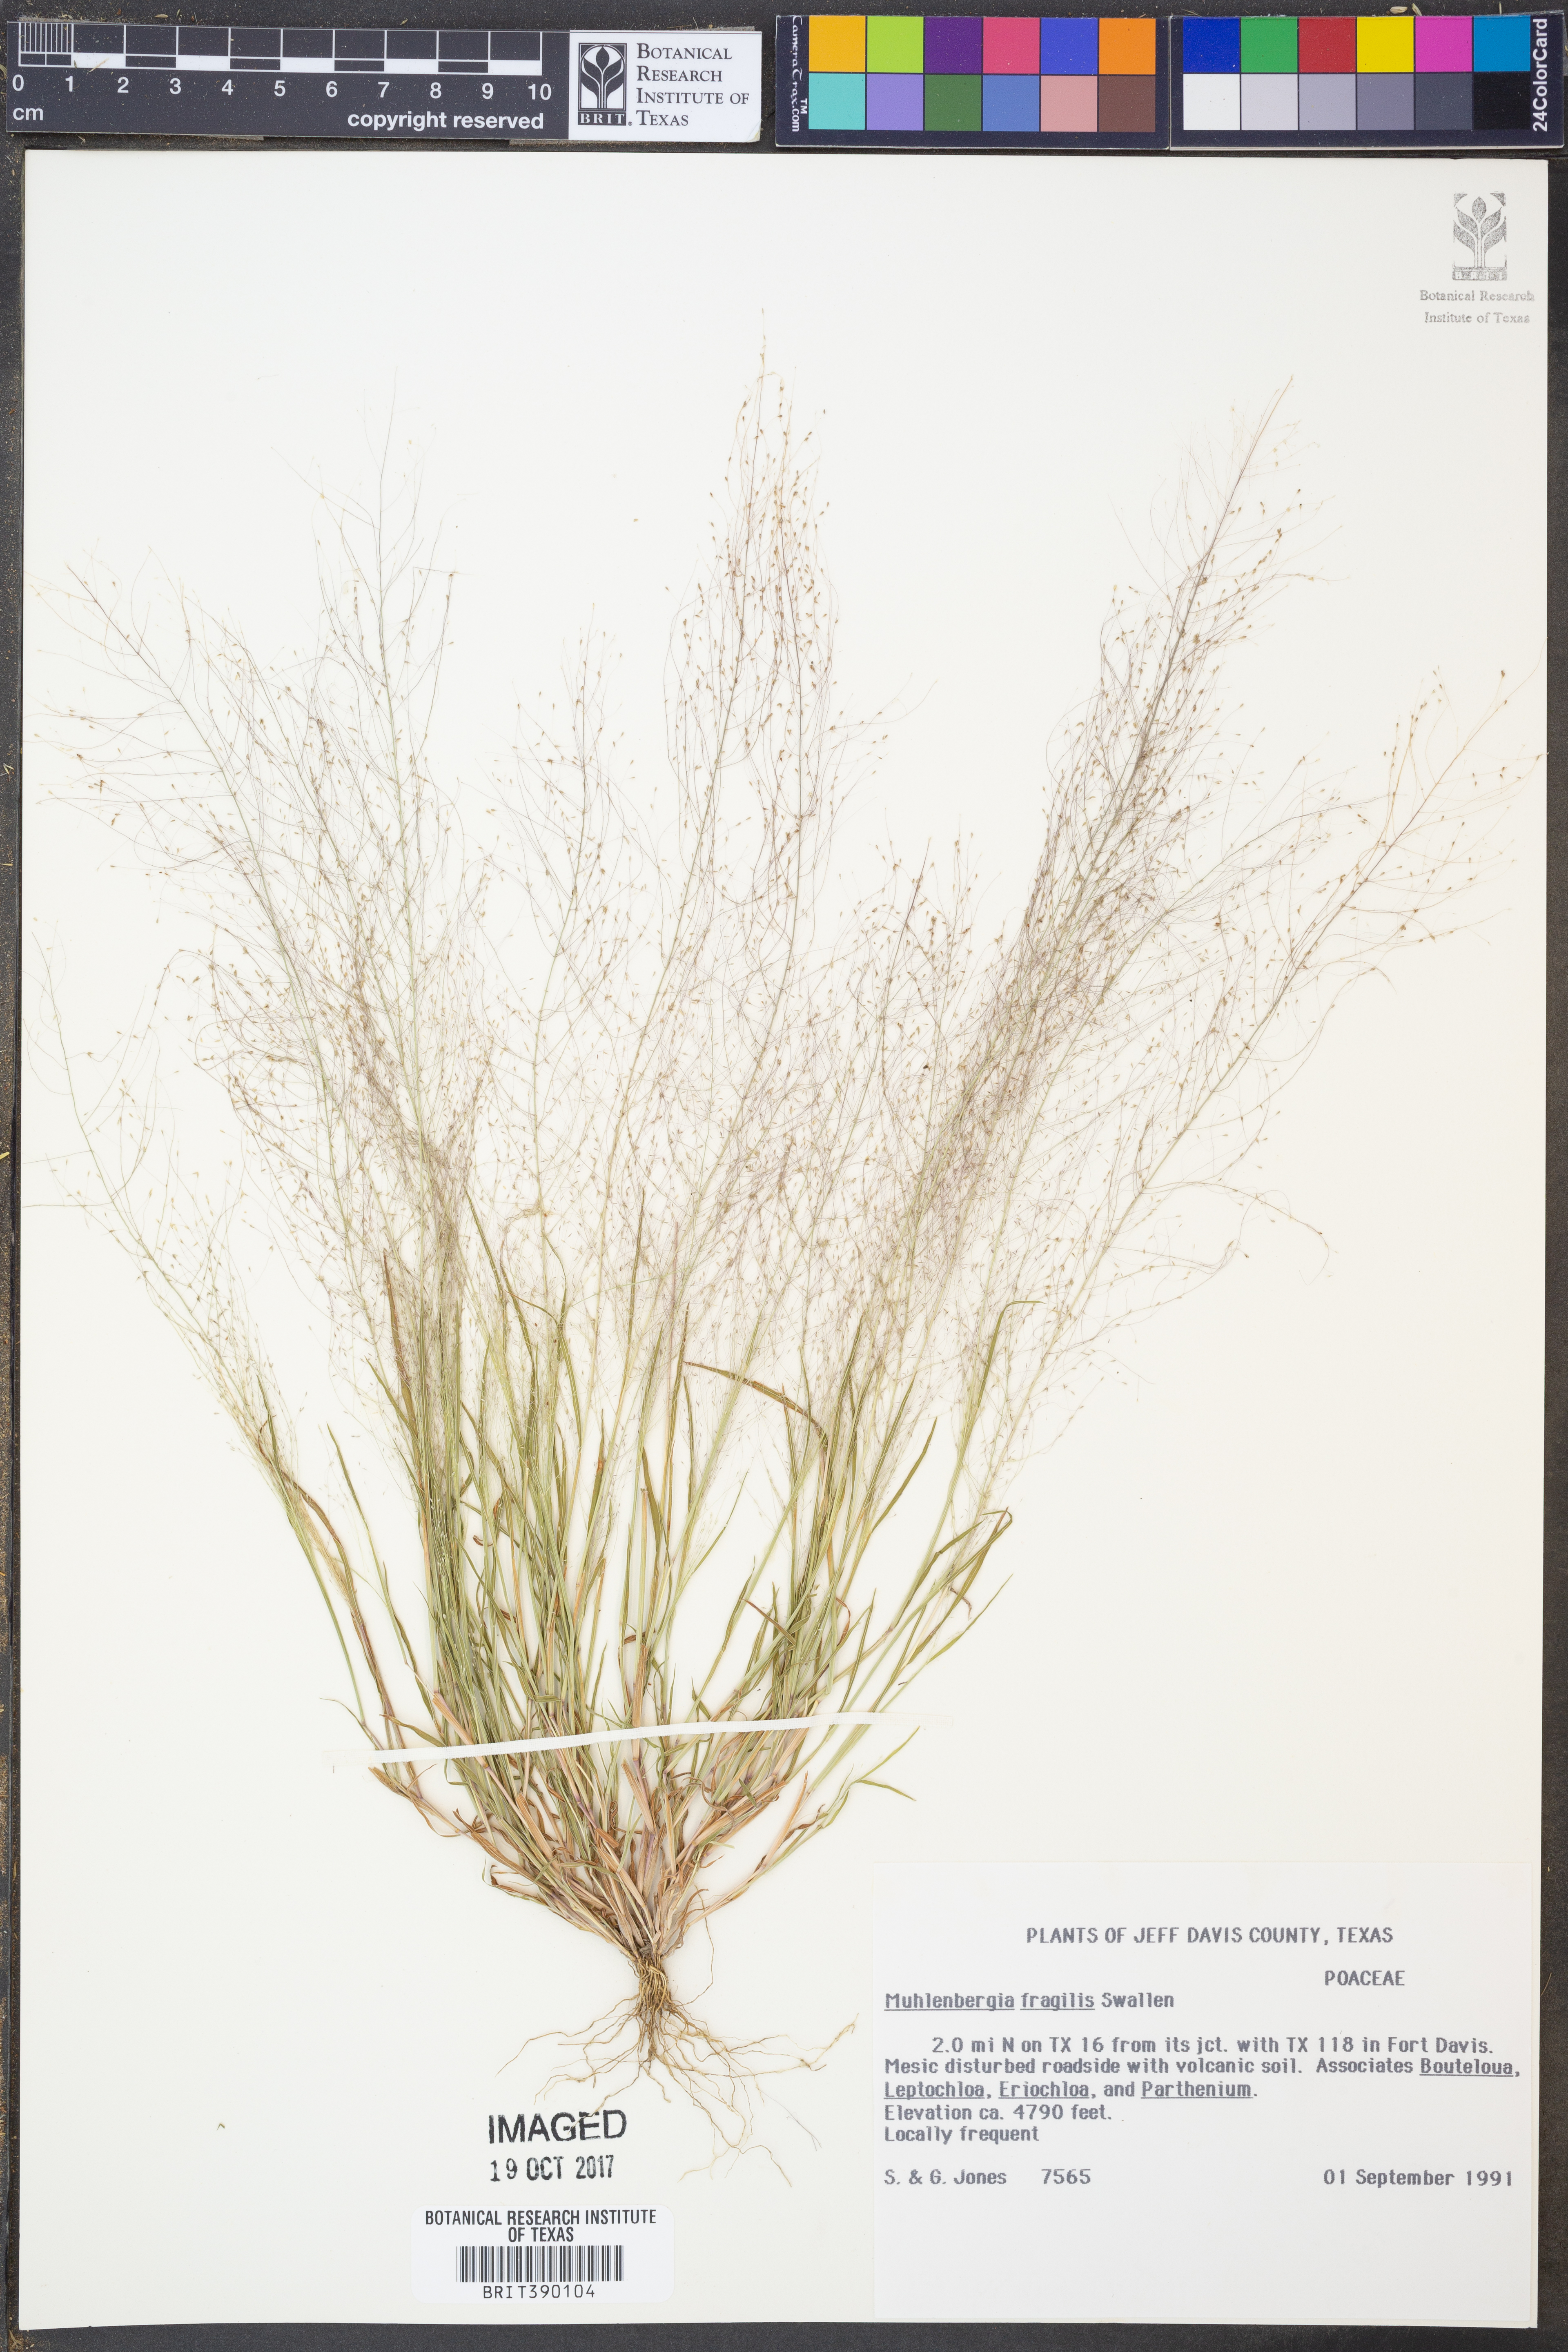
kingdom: Plantae
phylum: Tracheophyta
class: Liliopsida
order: Poales
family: Poaceae
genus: Muhlenbergia
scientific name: Muhlenbergia fragilis
